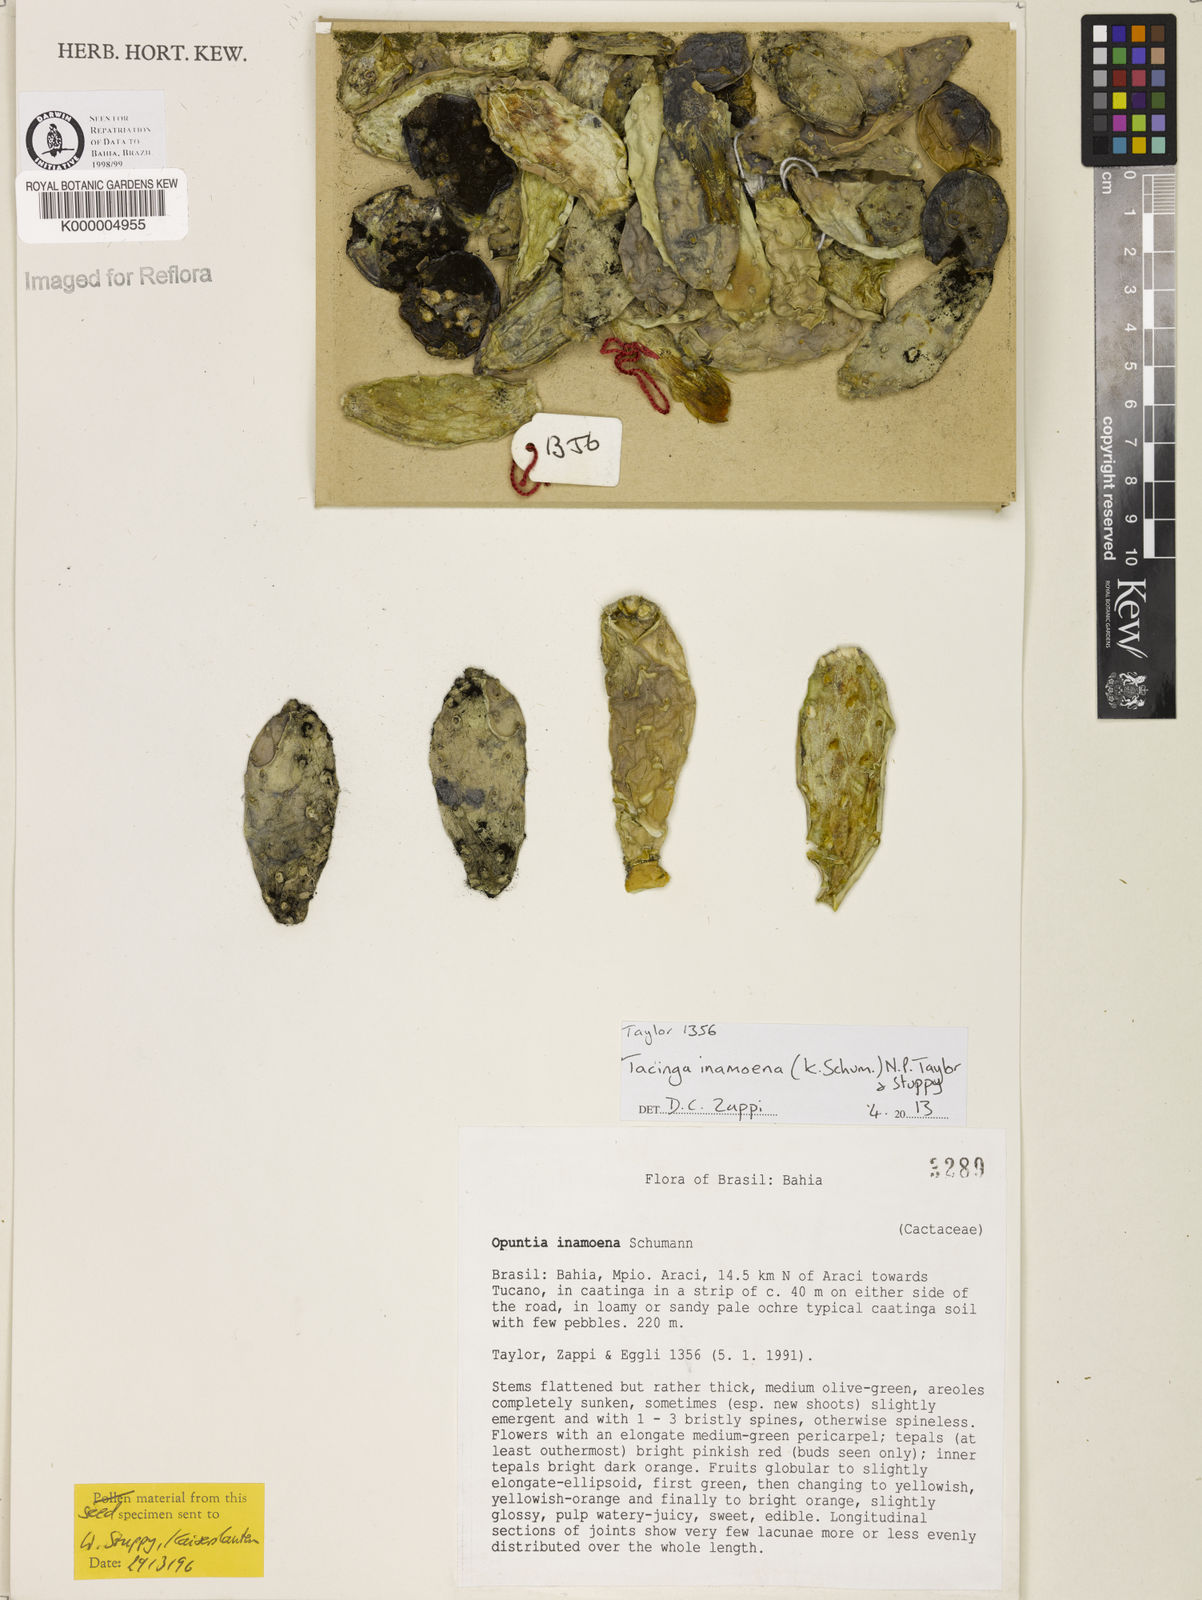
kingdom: Plantae
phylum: Tracheophyta
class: Magnoliopsida
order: Caryophyllales
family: Cactaceae
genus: Tacinga
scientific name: Tacinga inamoena
